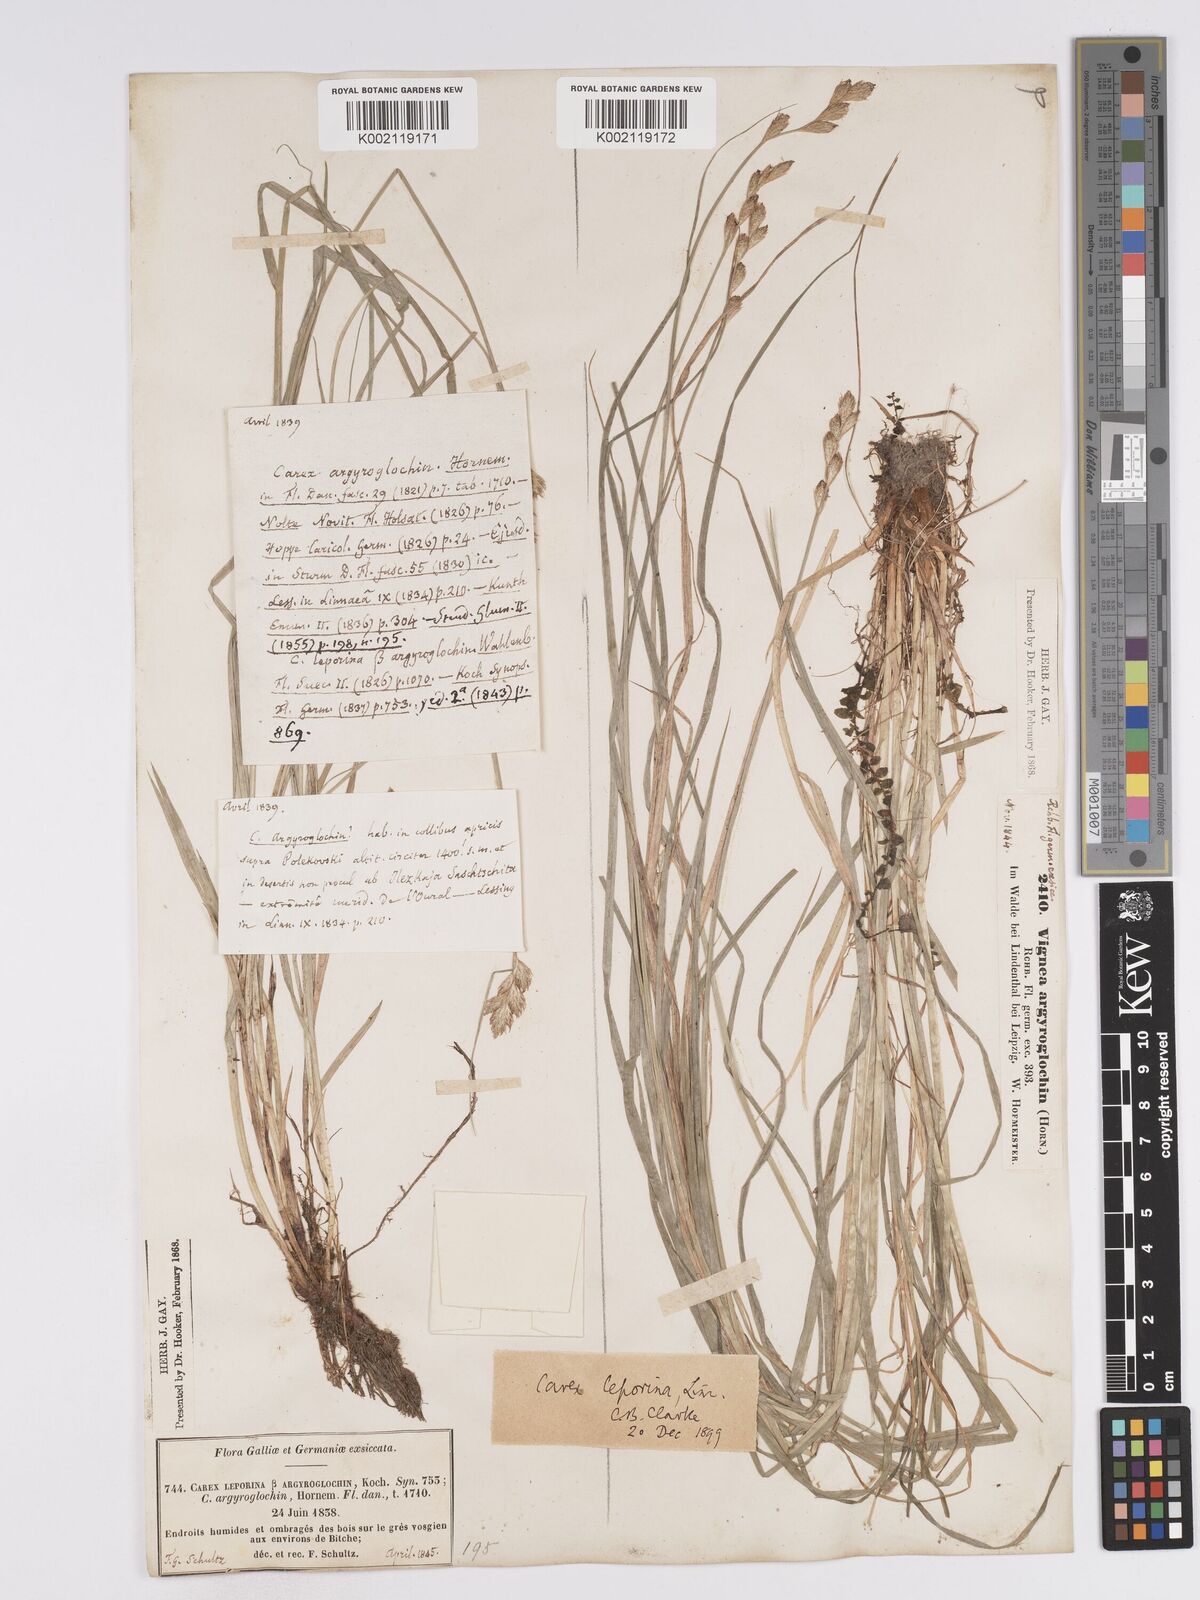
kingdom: Plantae
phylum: Tracheophyta
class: Liliopsida
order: Poales
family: Cyperaceae
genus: Carex
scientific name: Carex leporina
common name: Oval sedge
